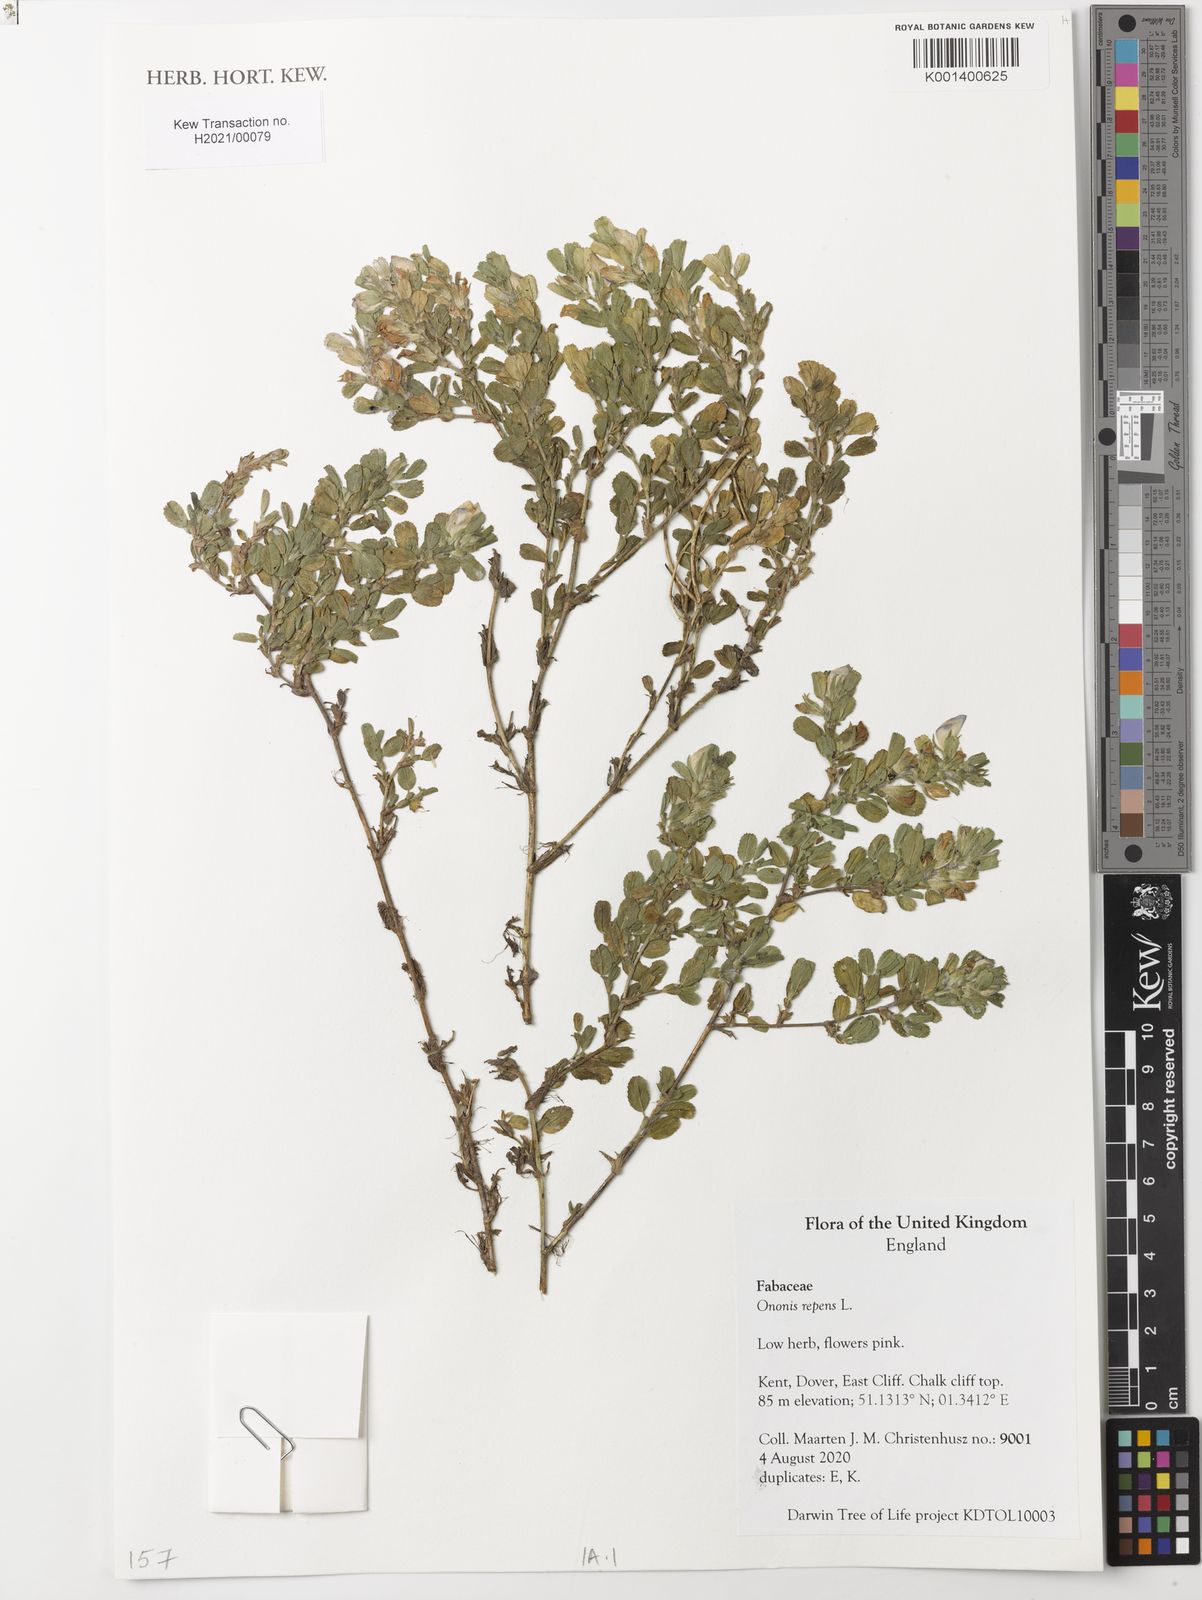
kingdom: Plantae
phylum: Tracheophyta
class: Magnoliopsida
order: Fabales
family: Fabaceae
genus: Ononis
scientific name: Ononis spinosa
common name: Spiny restharrow
